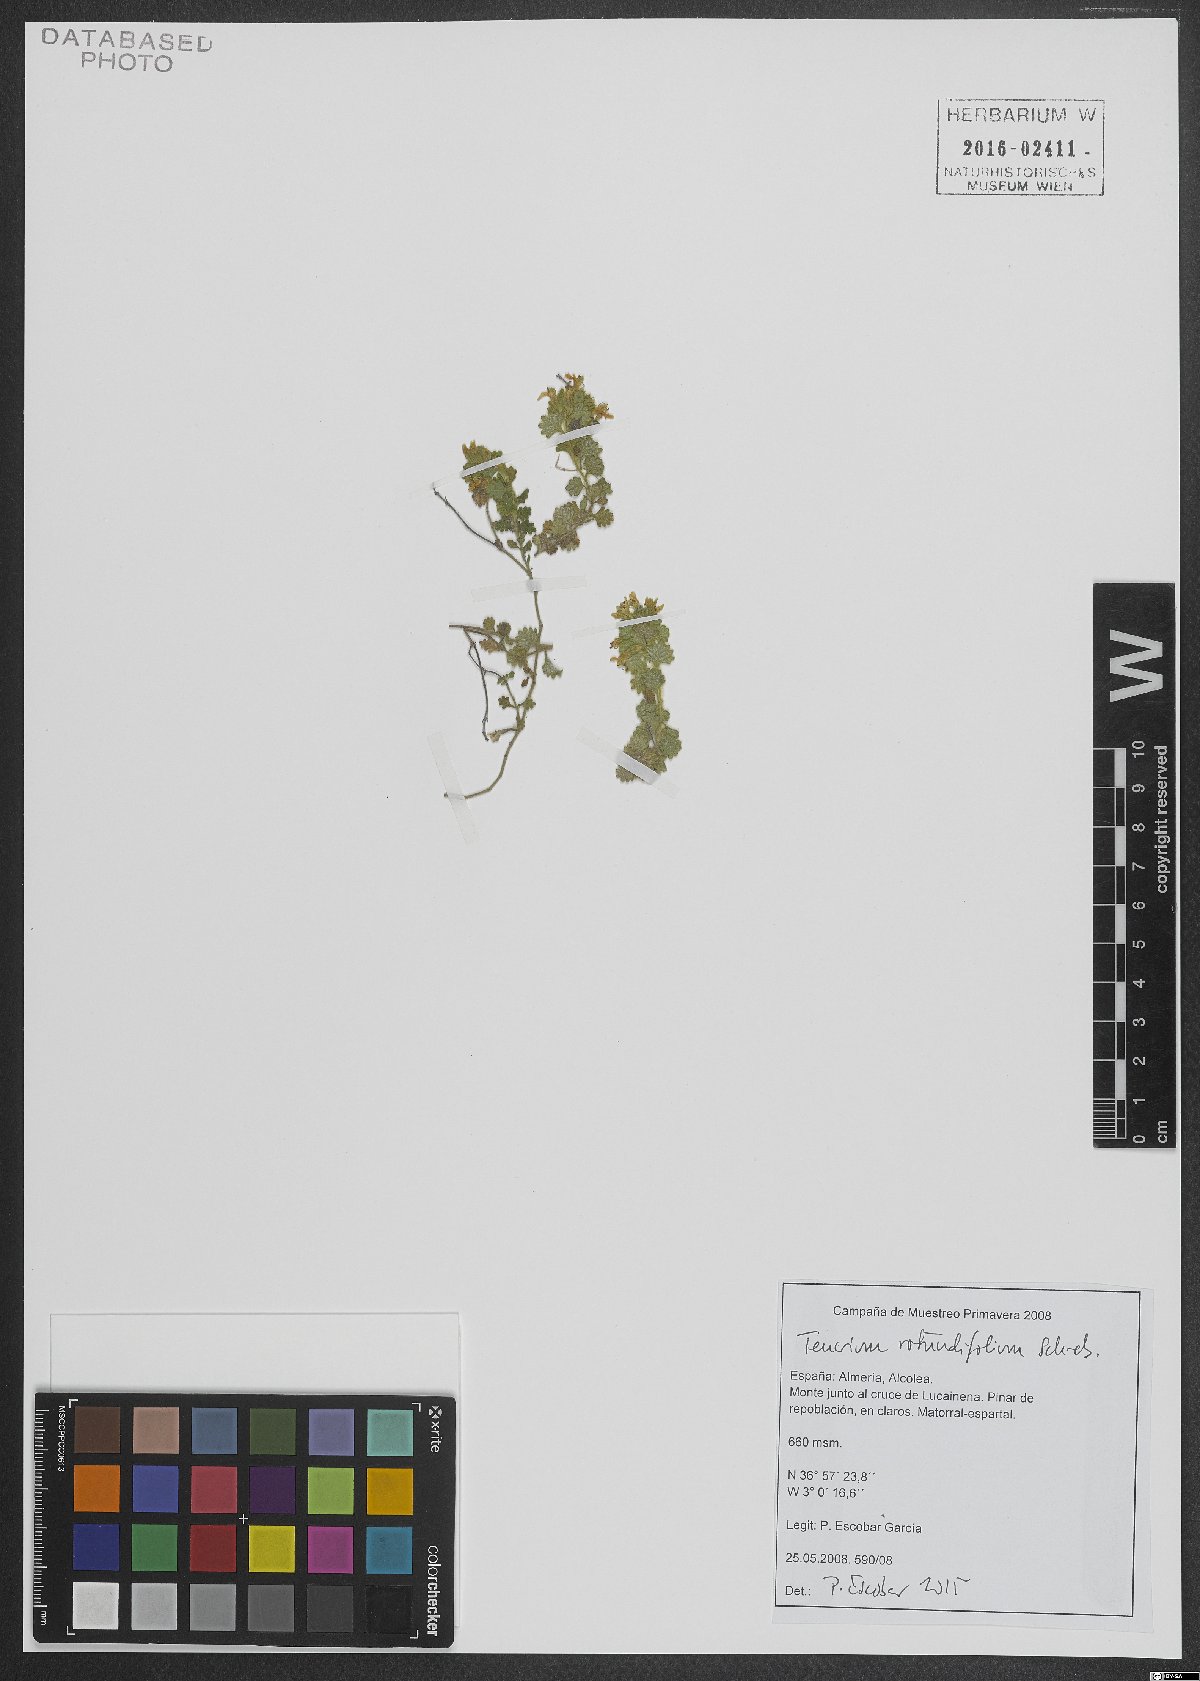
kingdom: Plantae
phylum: Tracheophyta
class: Magnoliopsida
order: Lamiales
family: Lamiaceae
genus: Teucrium
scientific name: Teucrium rotundifolium
